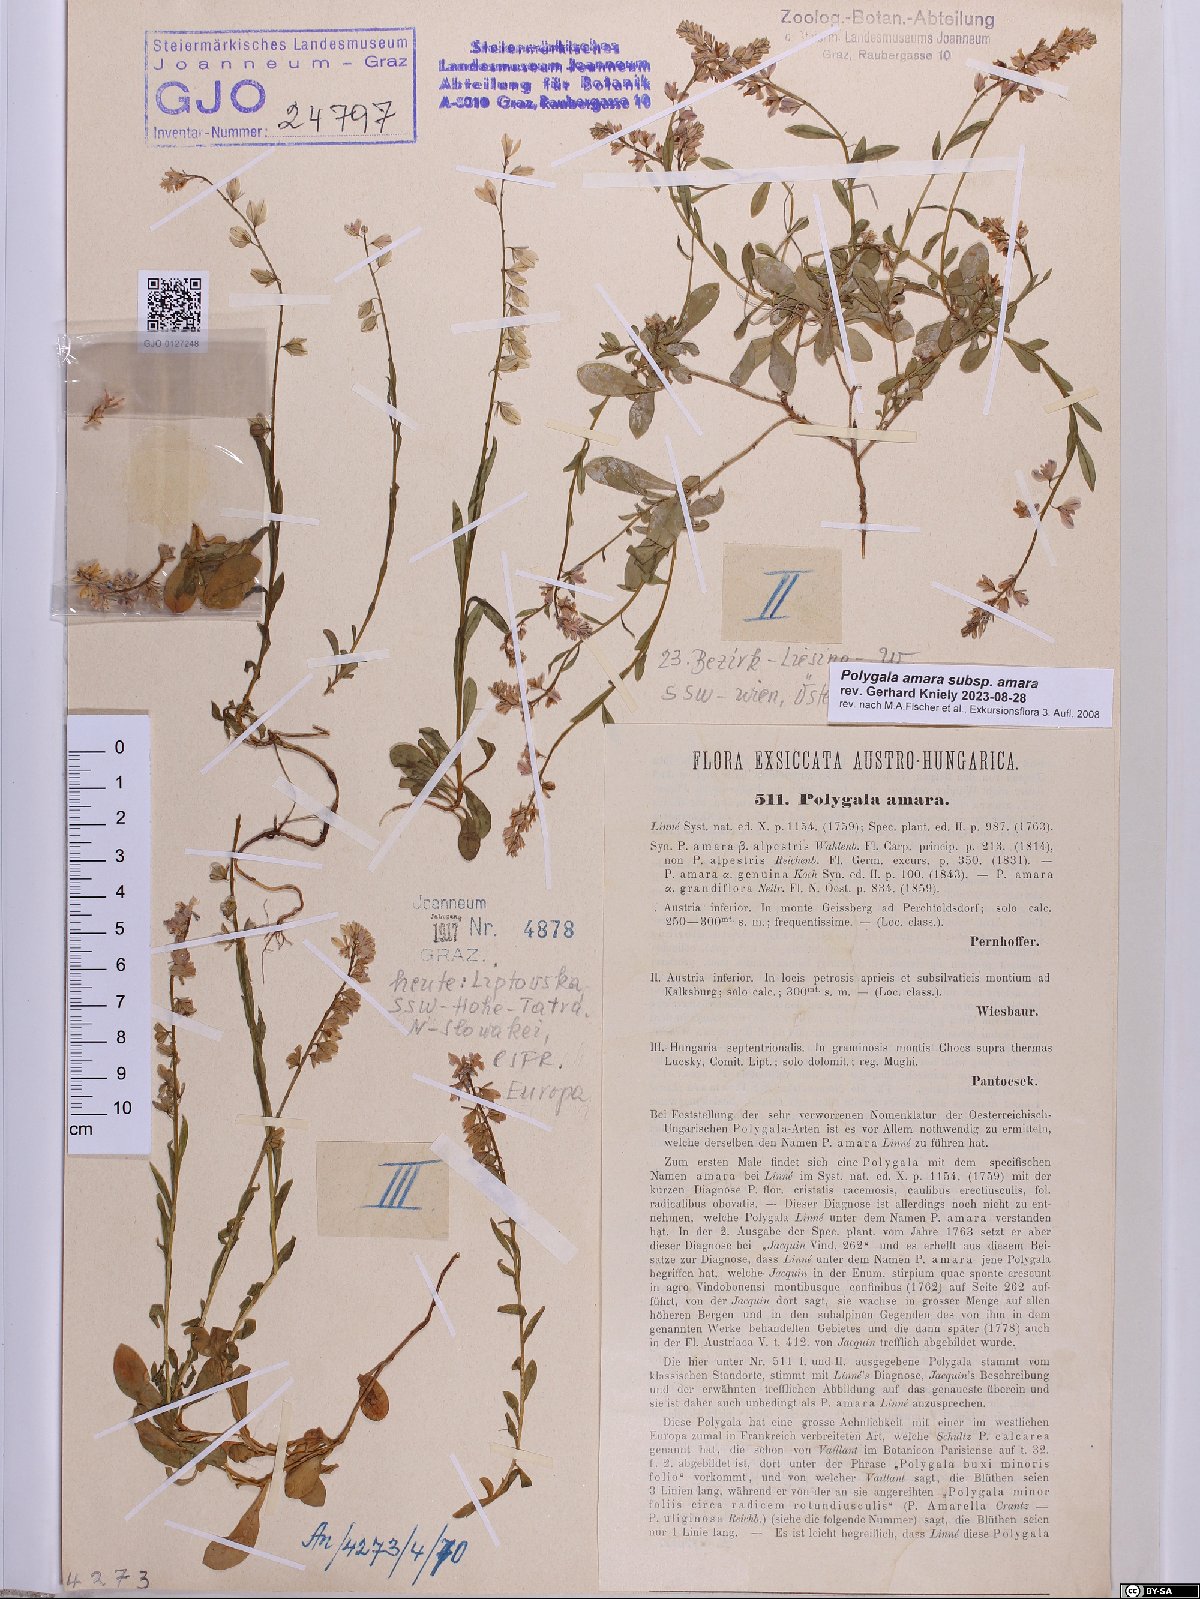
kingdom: Plantae
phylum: Tracheophyta
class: Magnoliopsida
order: Fabales
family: Polygalaceae
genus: Polygala
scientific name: Polygala amara
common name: Milkwort
